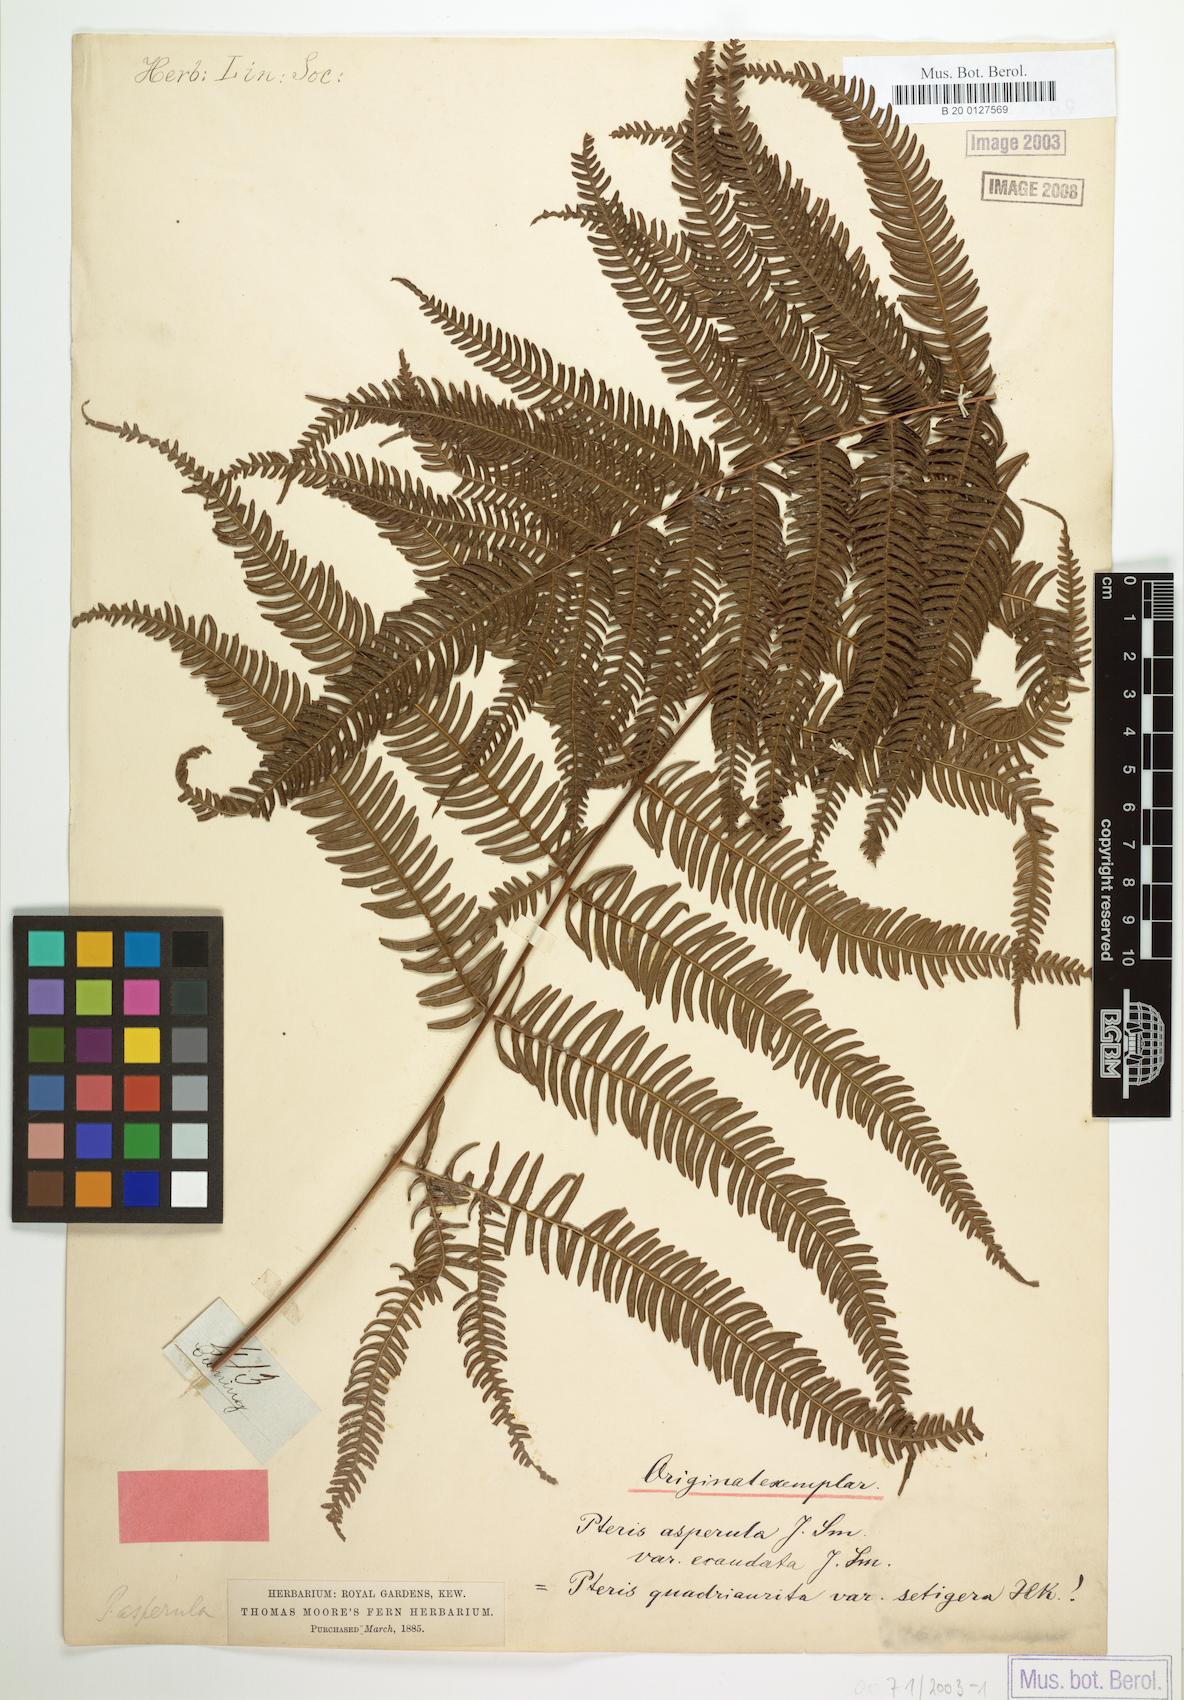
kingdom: Plantae
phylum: Tracheophyta
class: Polypodiopsida
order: Polypodiales
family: Pteridaceae
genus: Pteris
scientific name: Pteris oppositipinnata
